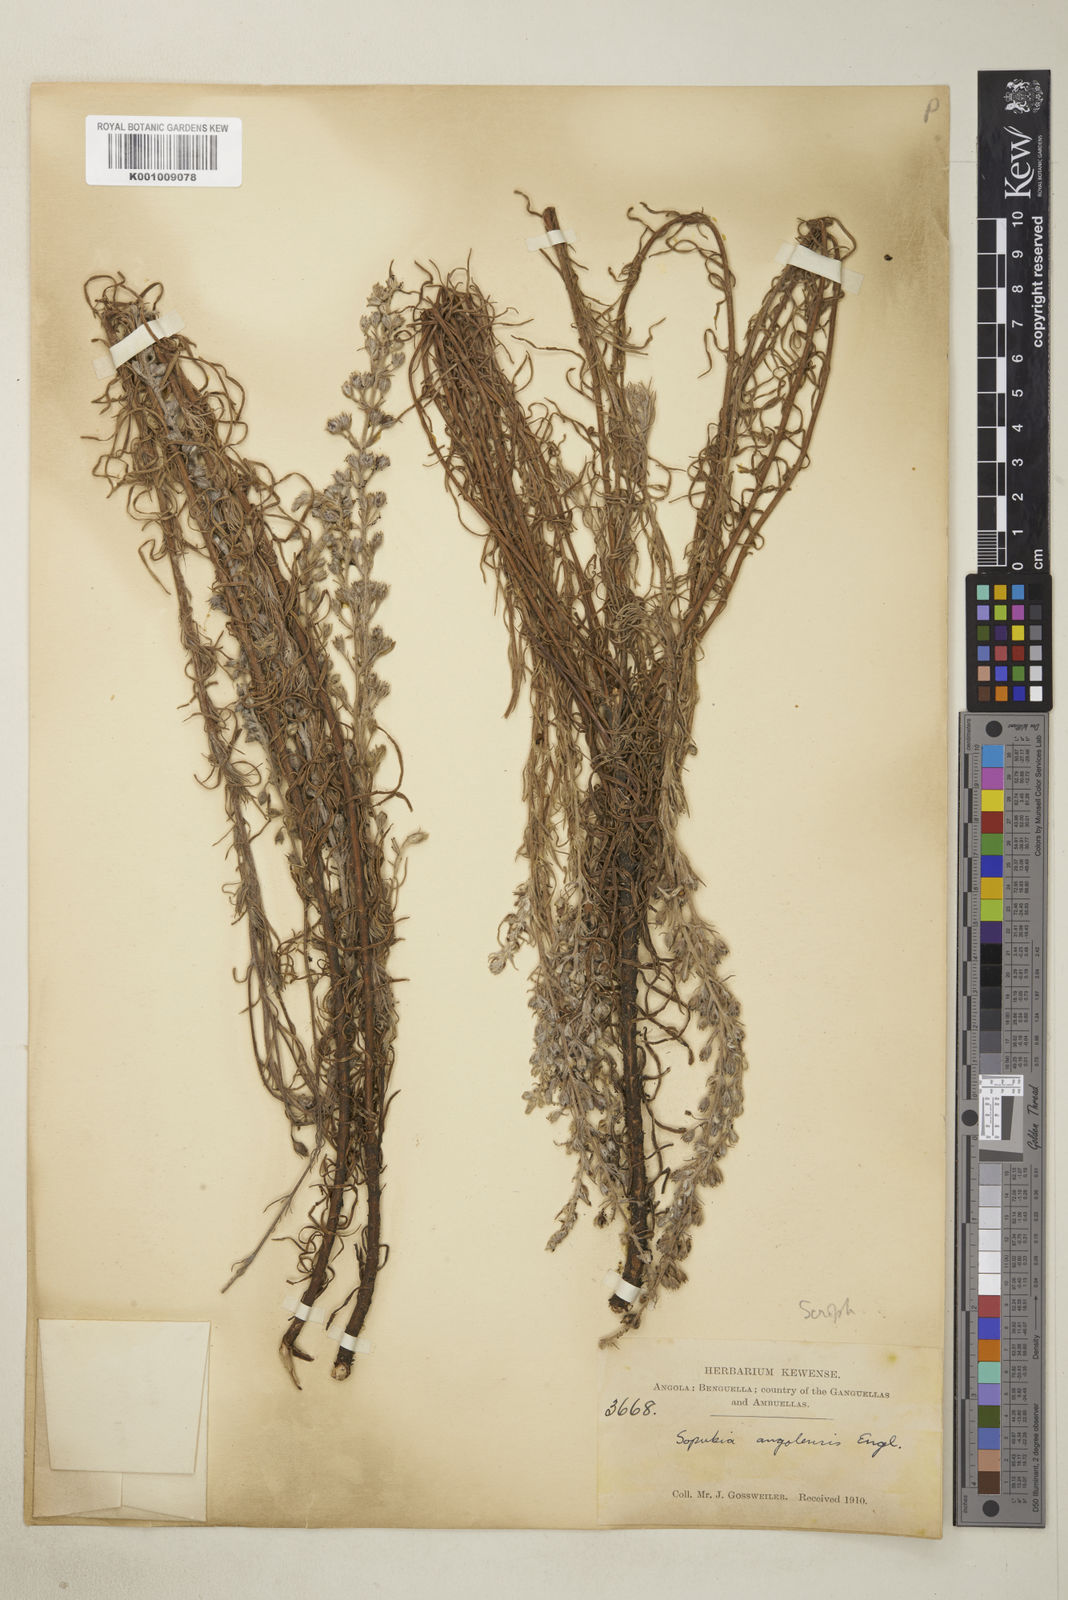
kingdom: Plantae
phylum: Tracheophyta
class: Magnoliopsida
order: Lamiales
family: Orobanchaceae
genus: Sopubia
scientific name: Sopubia cana
